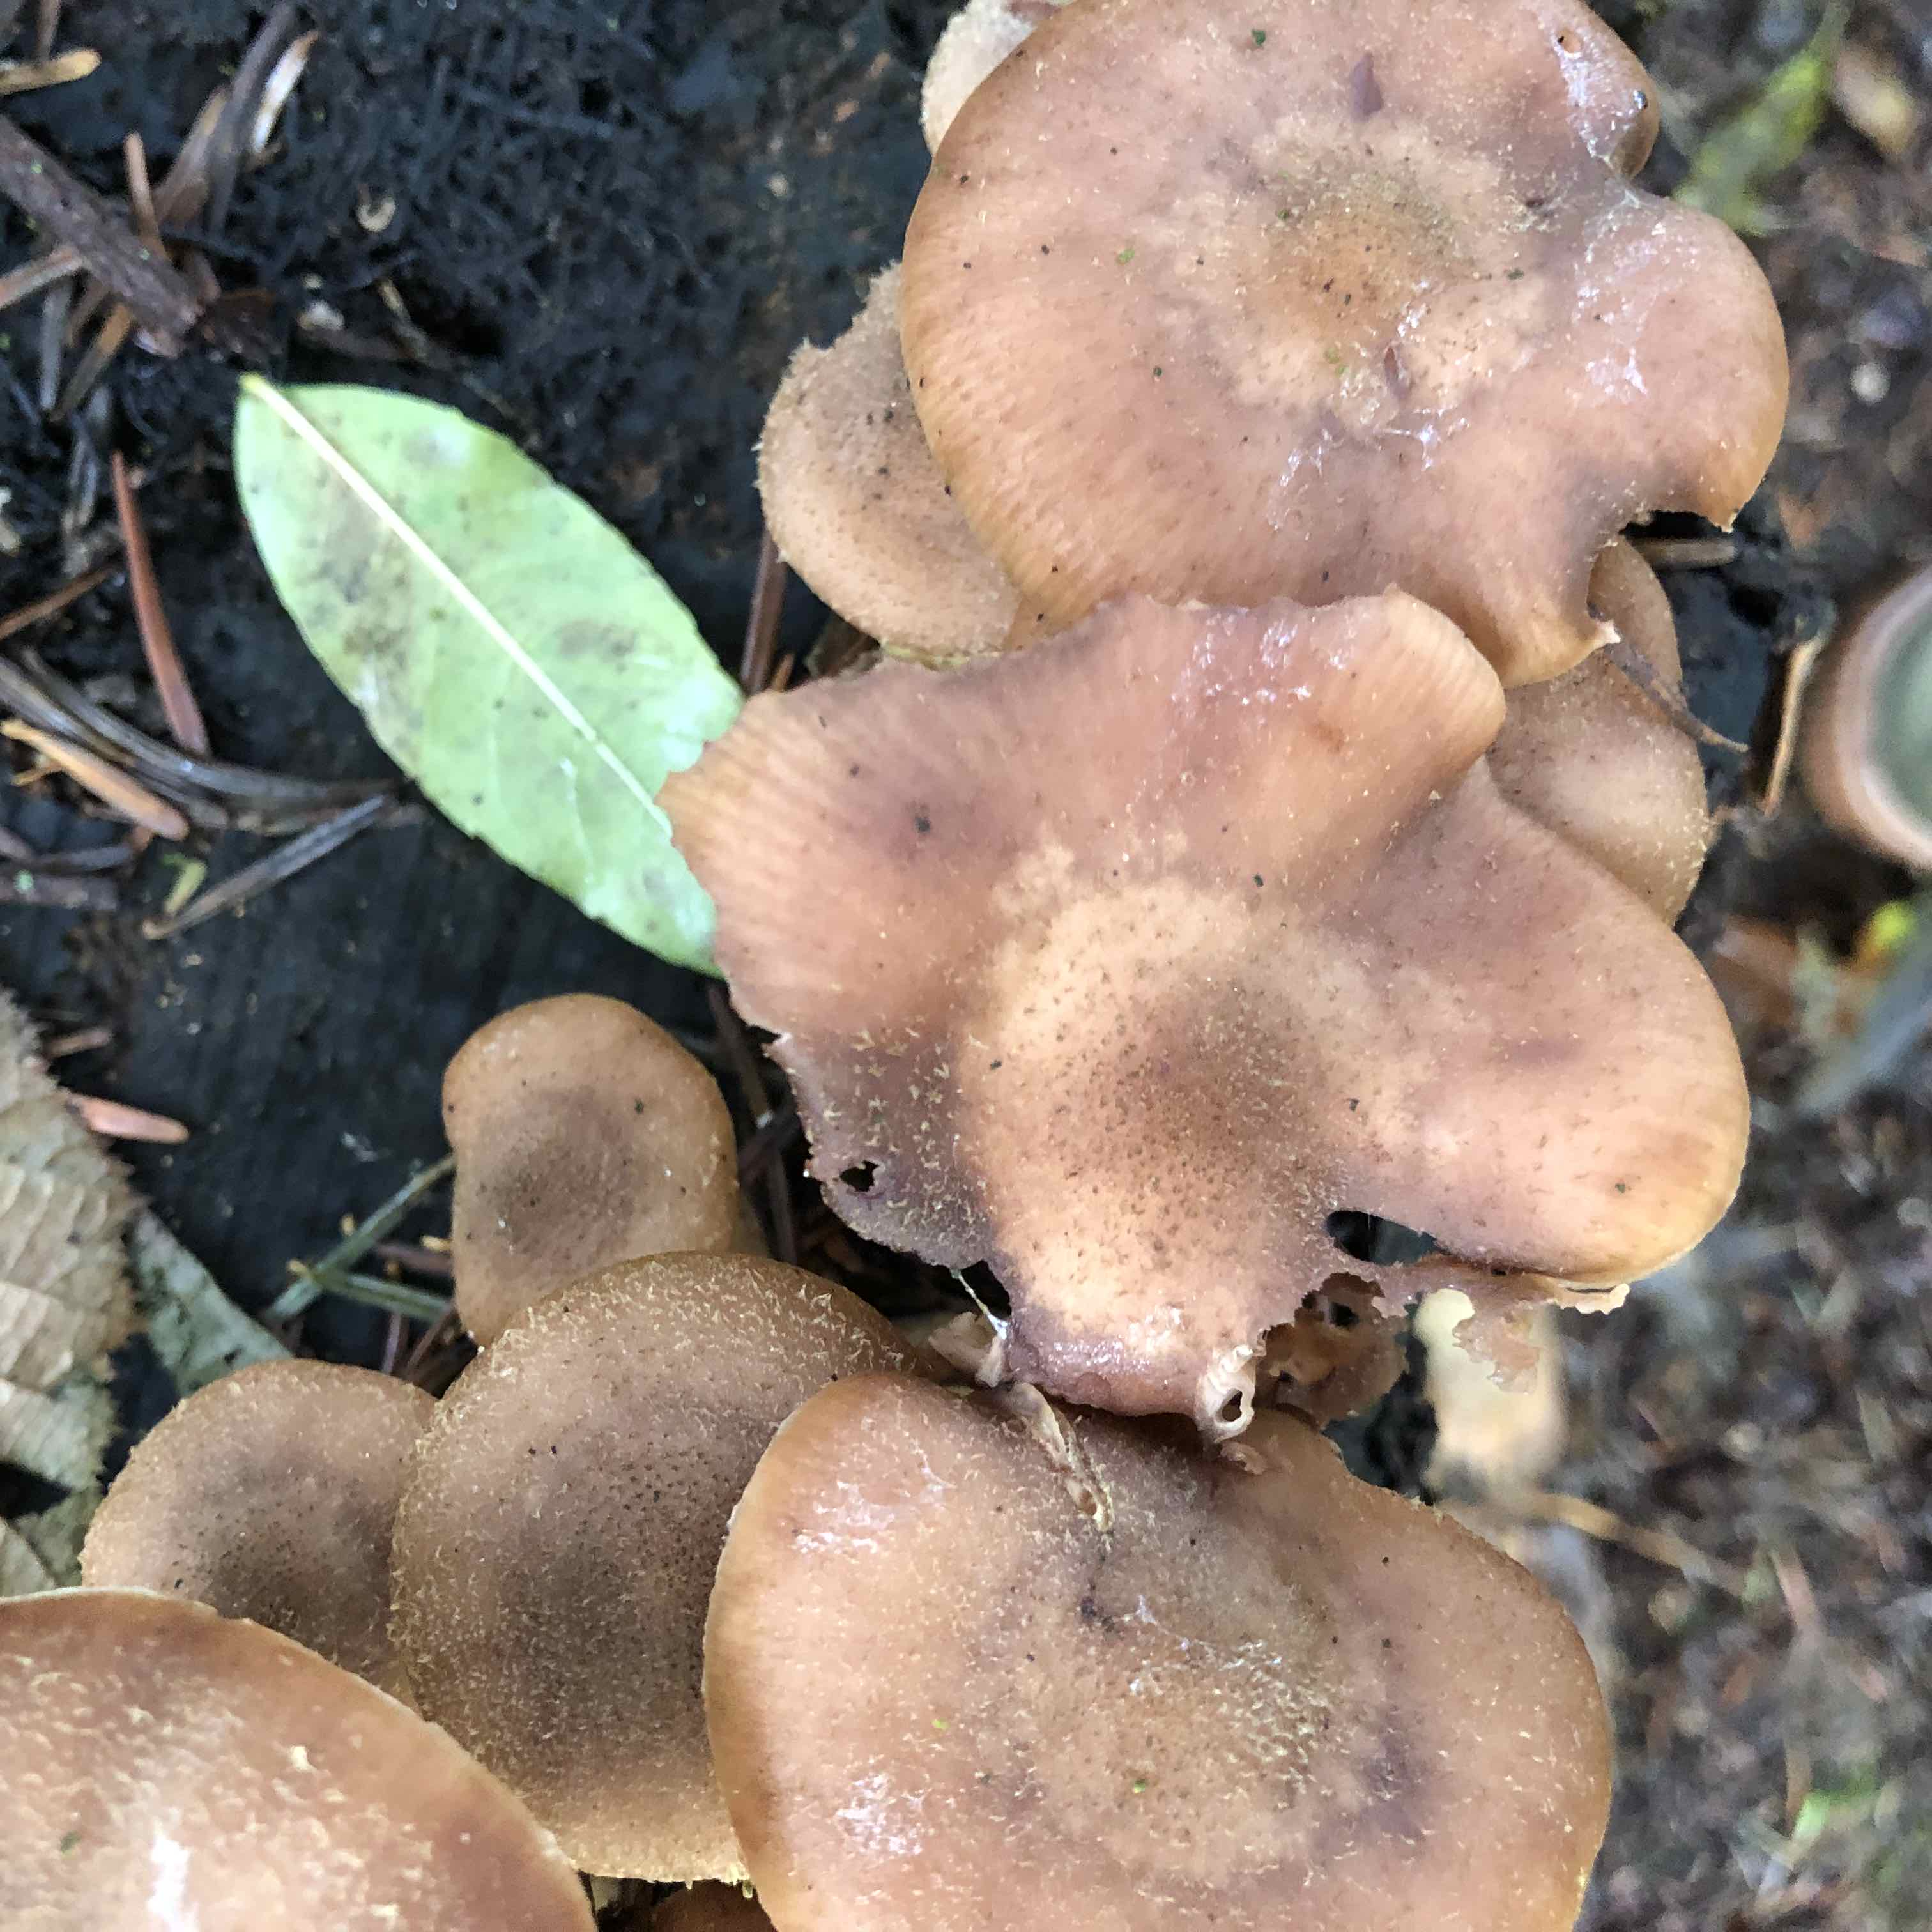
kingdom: Fungi
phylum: Basidiomycota
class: Agaricomycetes
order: Agaricales
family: Physalacriaceae
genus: Armillaria
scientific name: Armillaria
